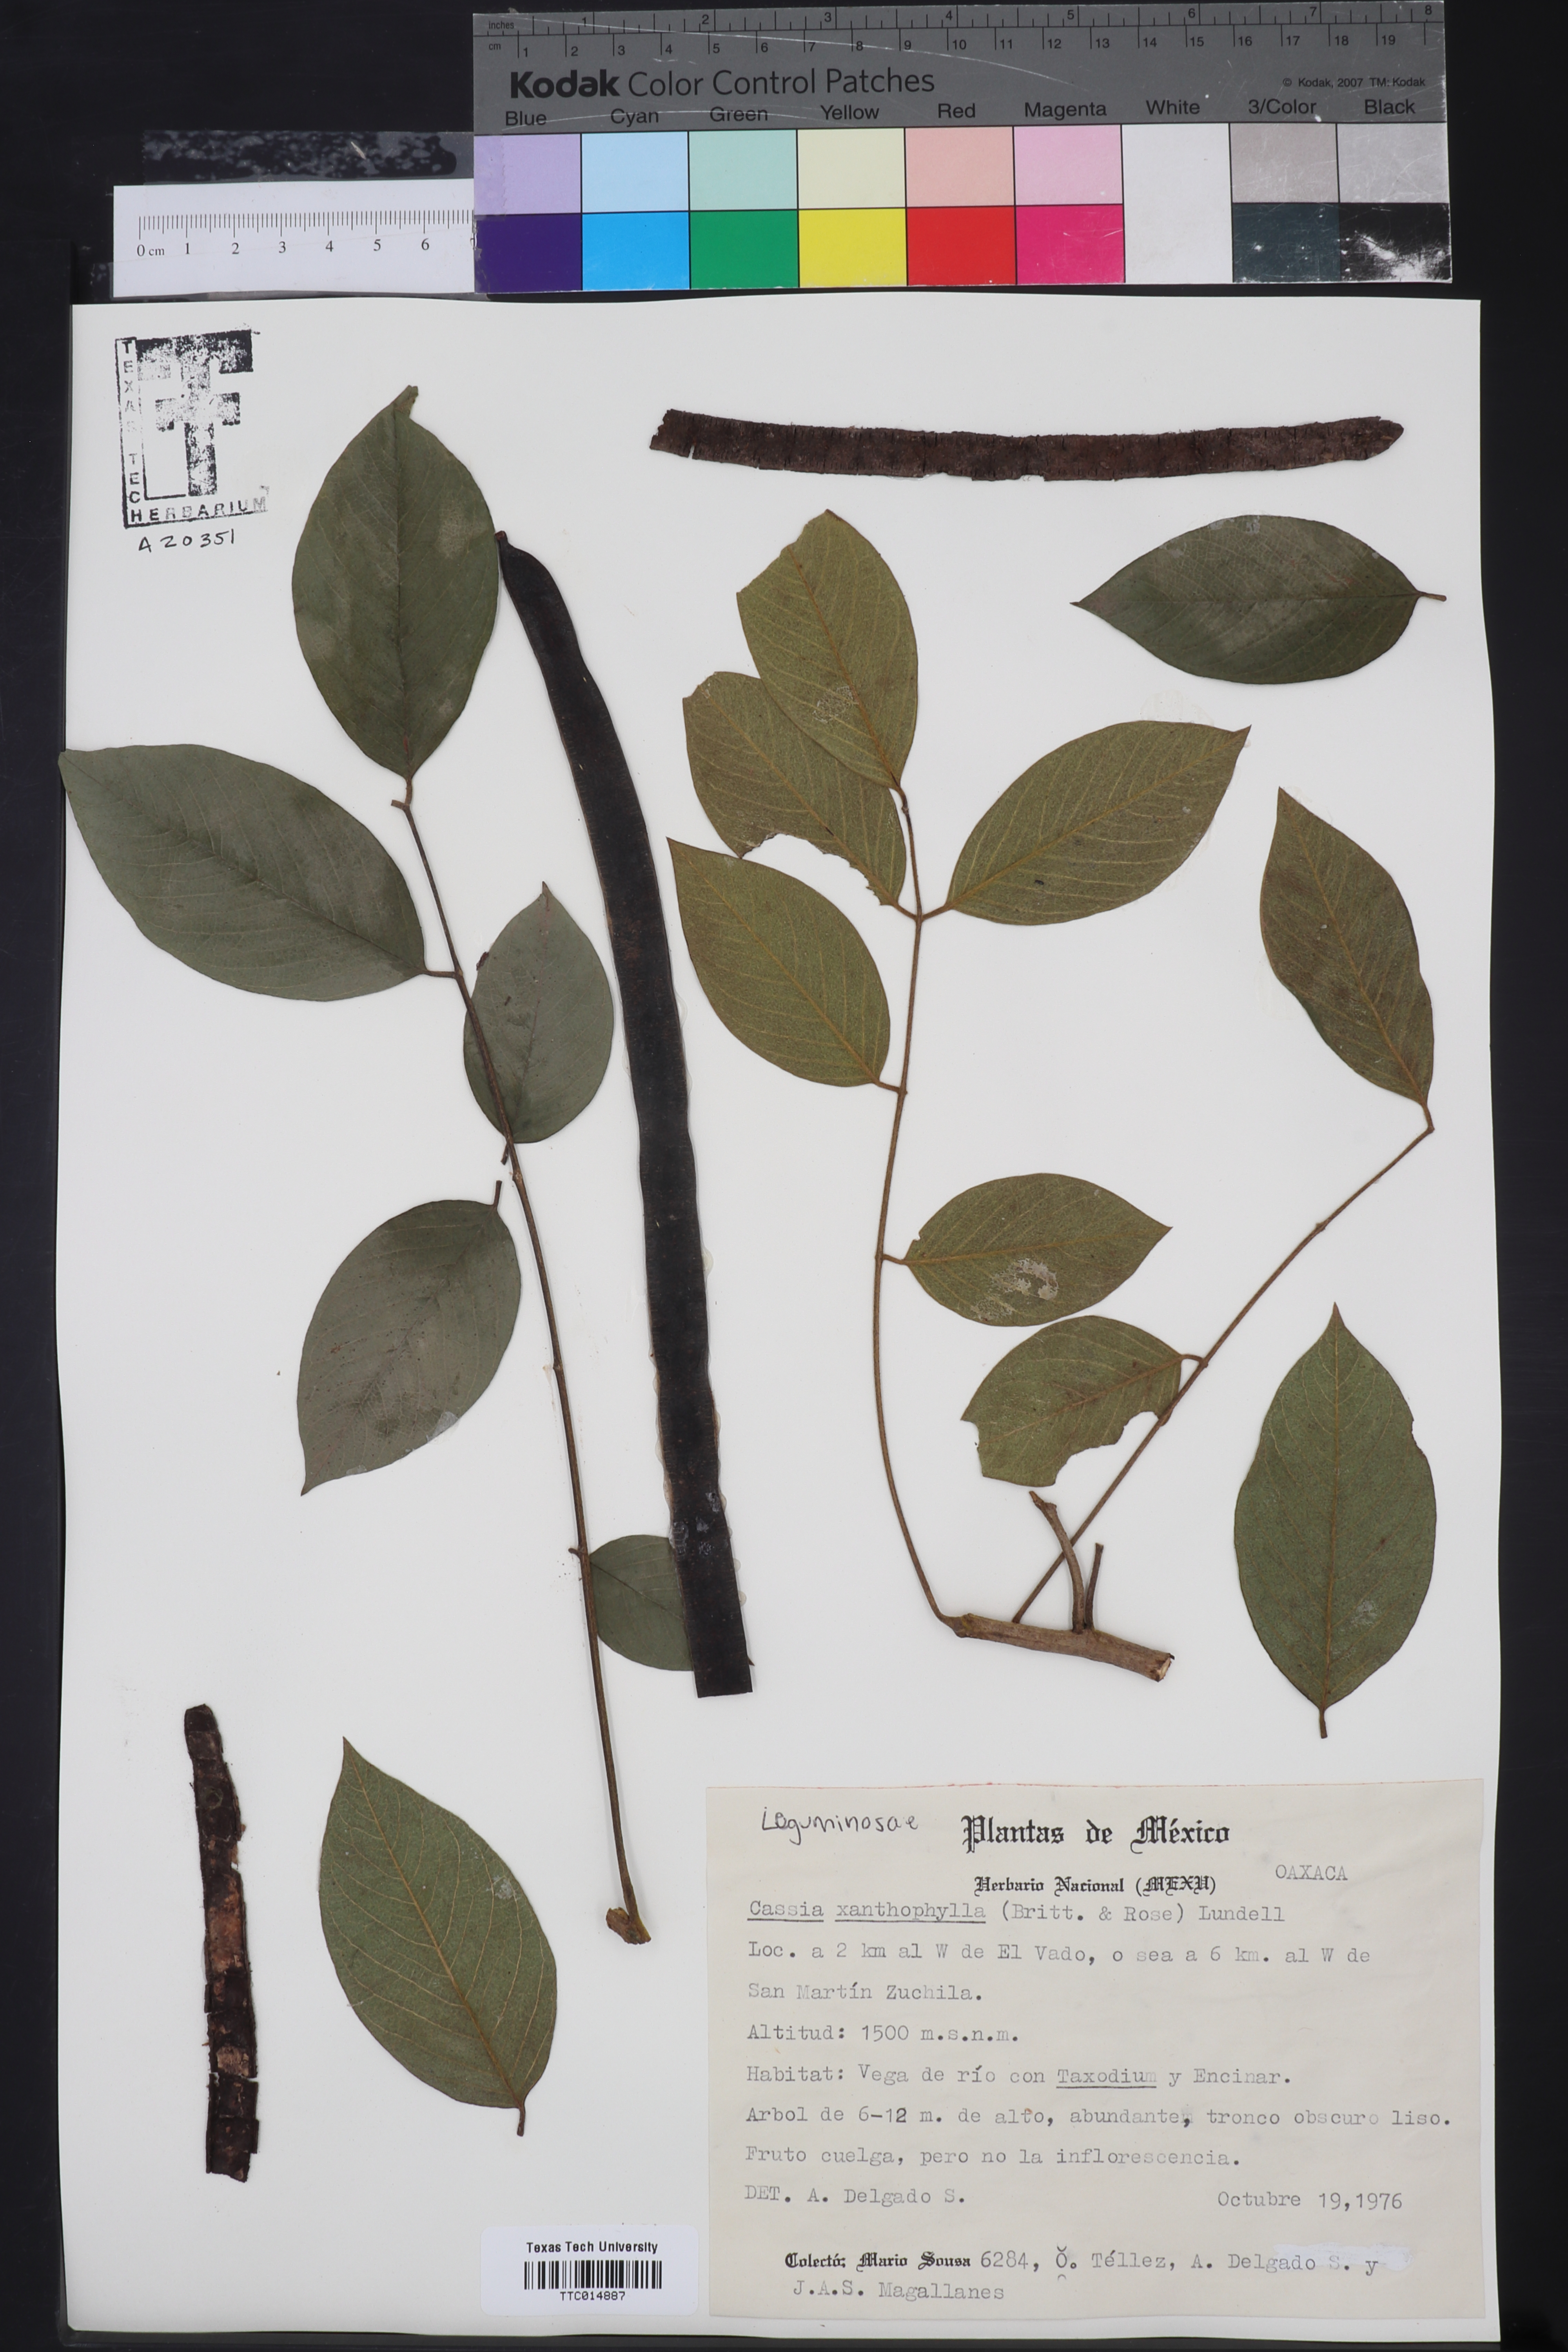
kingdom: Plantae
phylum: Tracheophyta
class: Magnoliopsida
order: Fabales
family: Fabaceae
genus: Senna
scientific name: Senna mollissima
